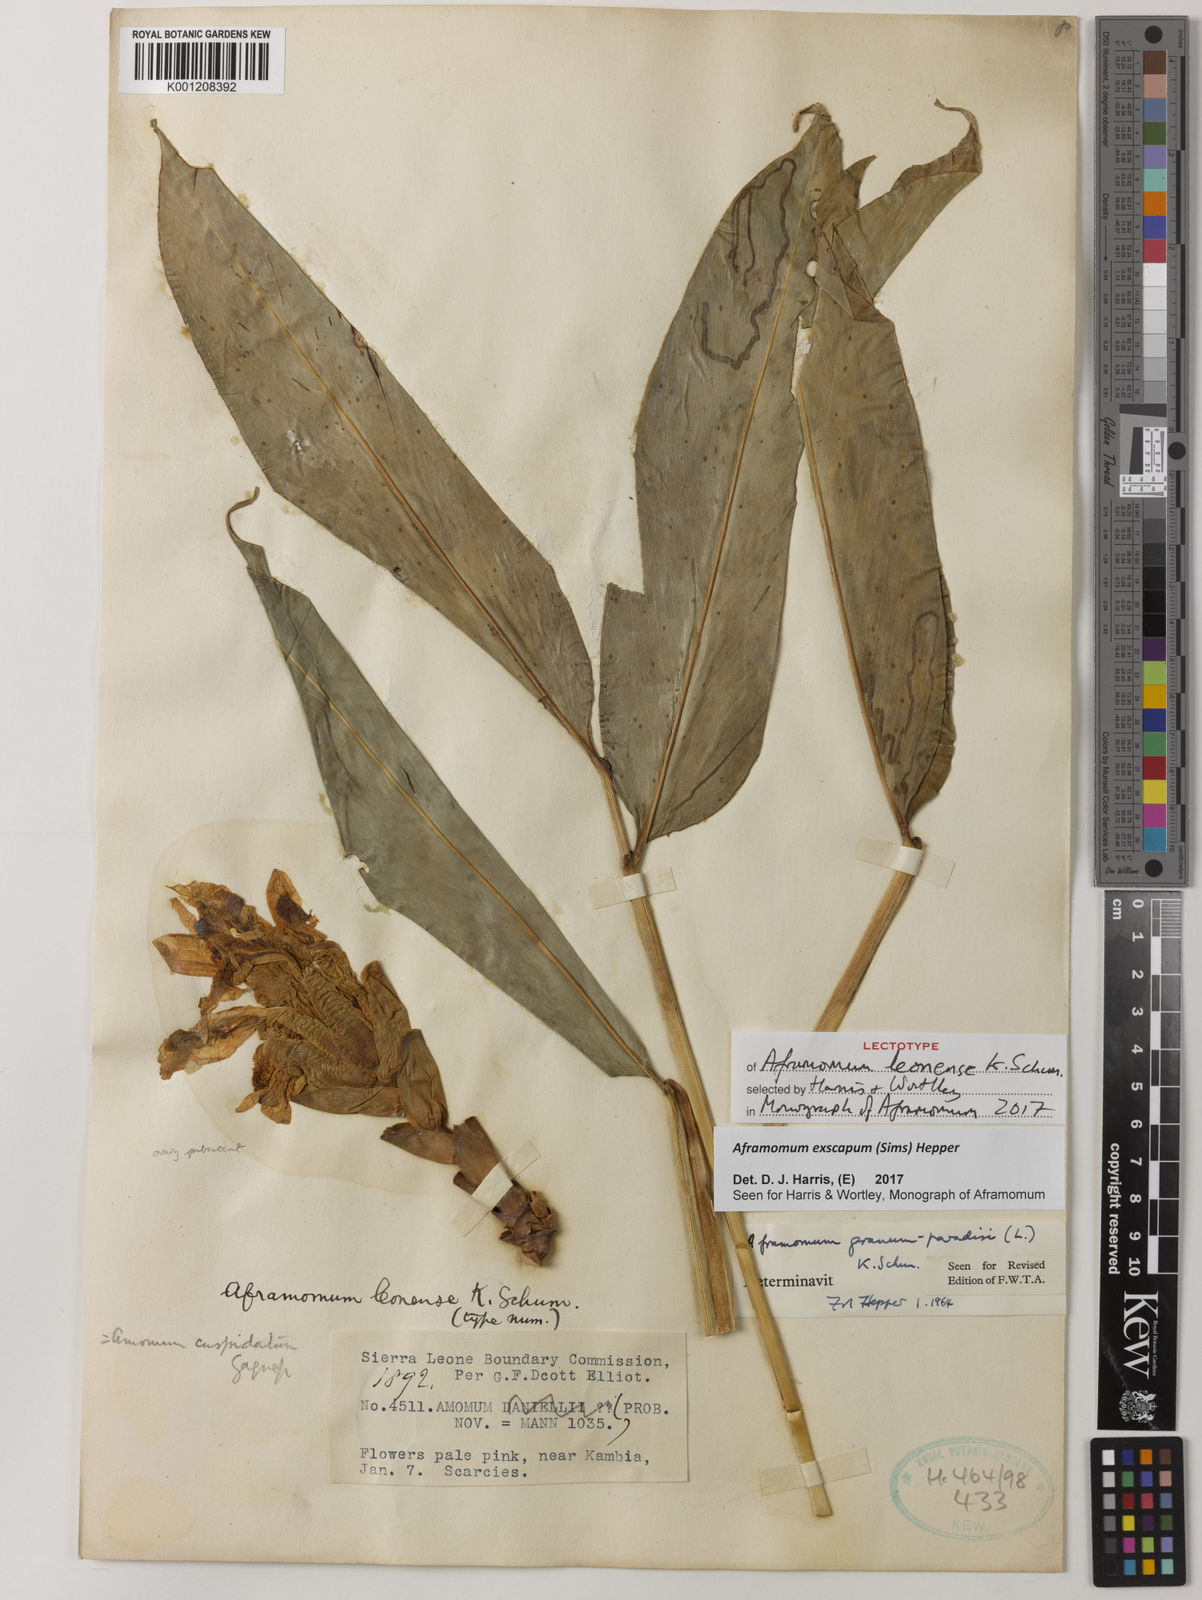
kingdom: Plantae
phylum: Tracheophyta
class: Liliopsida
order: Zingiberales
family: Zingiberaceae
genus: Aframomum
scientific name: Aframomum exscapum
